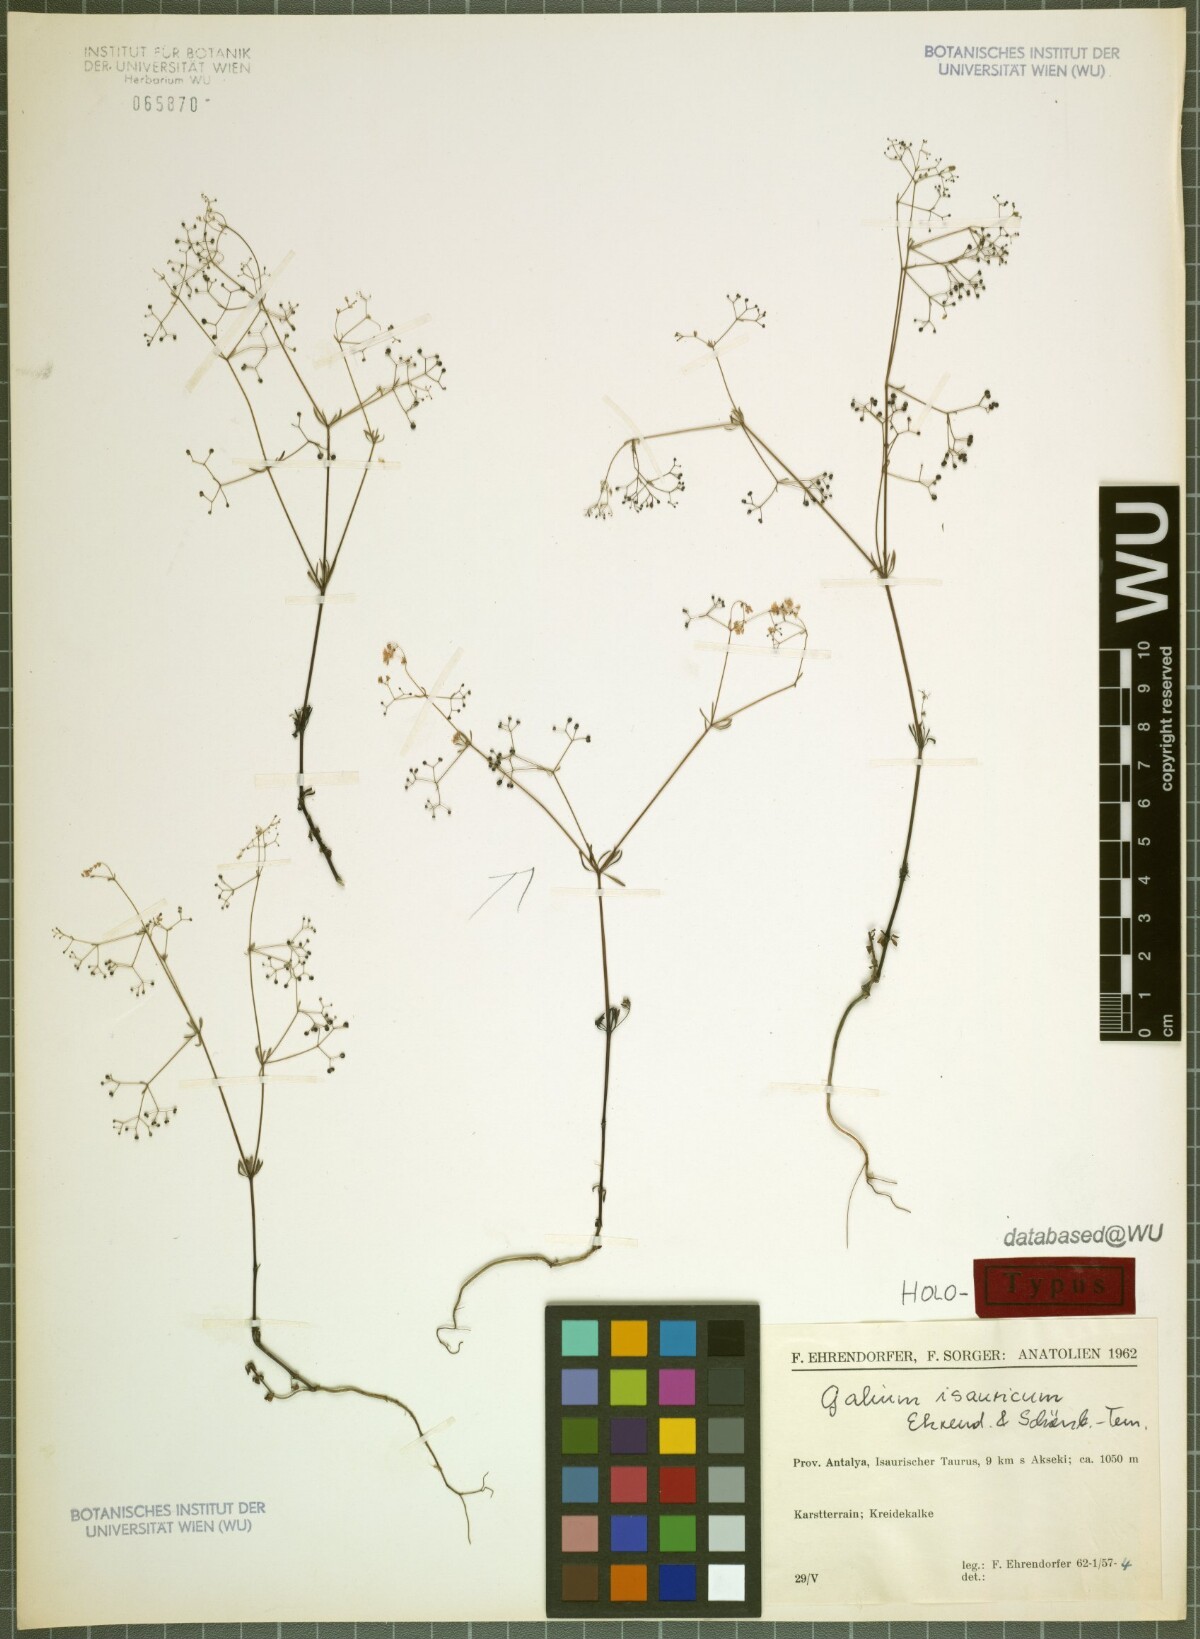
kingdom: Plantae
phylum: Tracheophyta
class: Magnoliopsida
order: Gentianales
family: Rubiaceae
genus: Galium
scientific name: Galium isauricum
